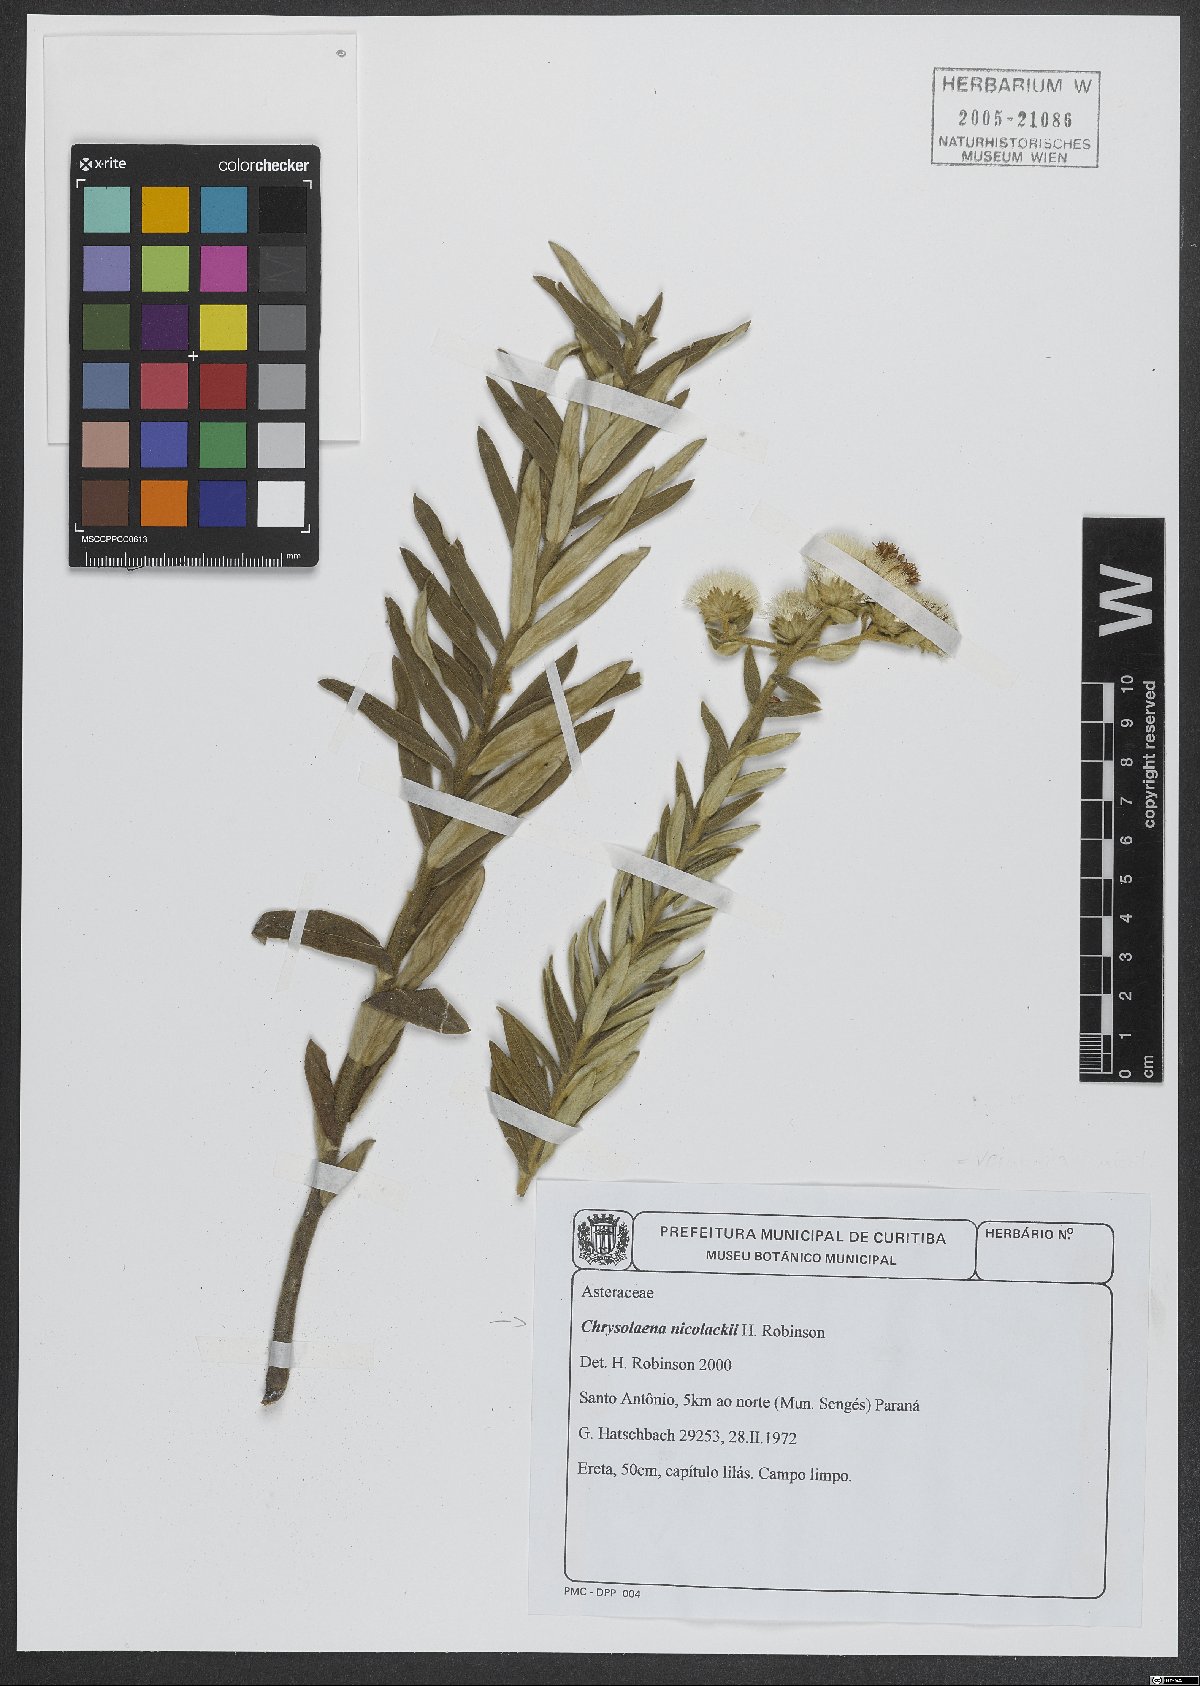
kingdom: Plantae
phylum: Tracheophyta
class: Magnoliopsida
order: Asterales
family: Asteraceae
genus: Chrysolaena
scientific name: Chrysolaena nicolackii
